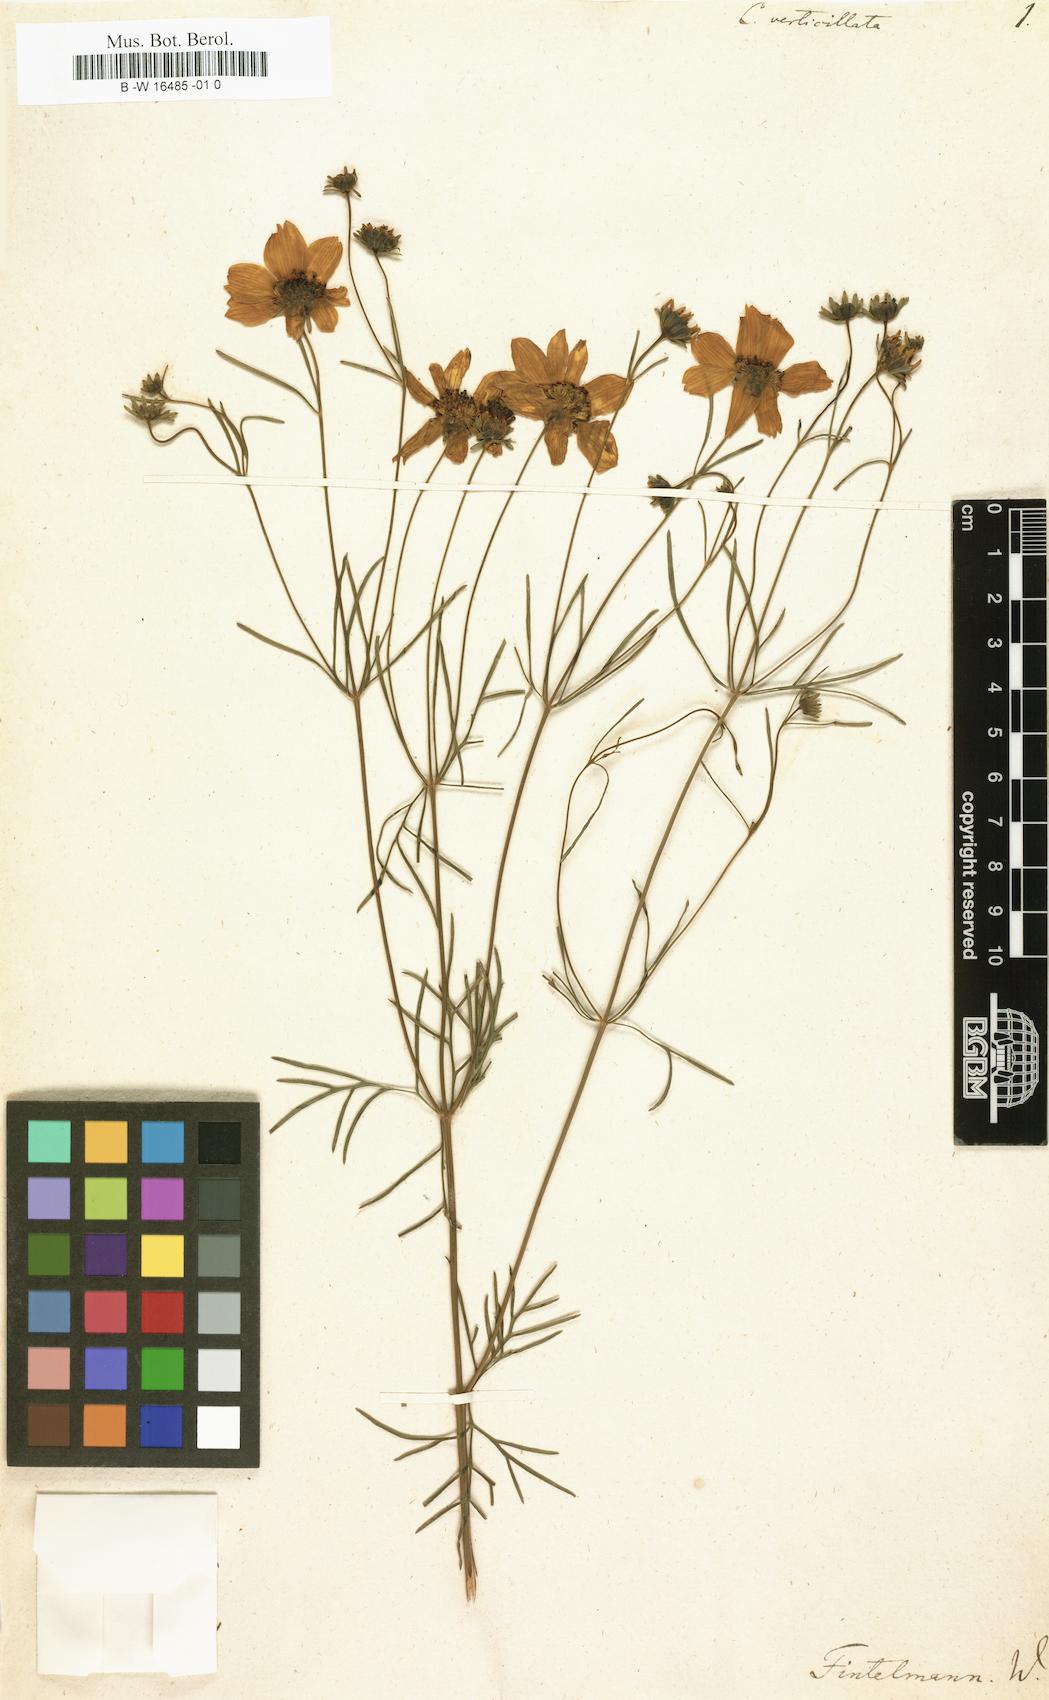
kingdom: Plantae
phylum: Tracheophyta
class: Magnoliopsida
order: Asterales
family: Asteraceae
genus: Coreopsis
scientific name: Coreopsis verticillata
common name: Whorled tickseed
